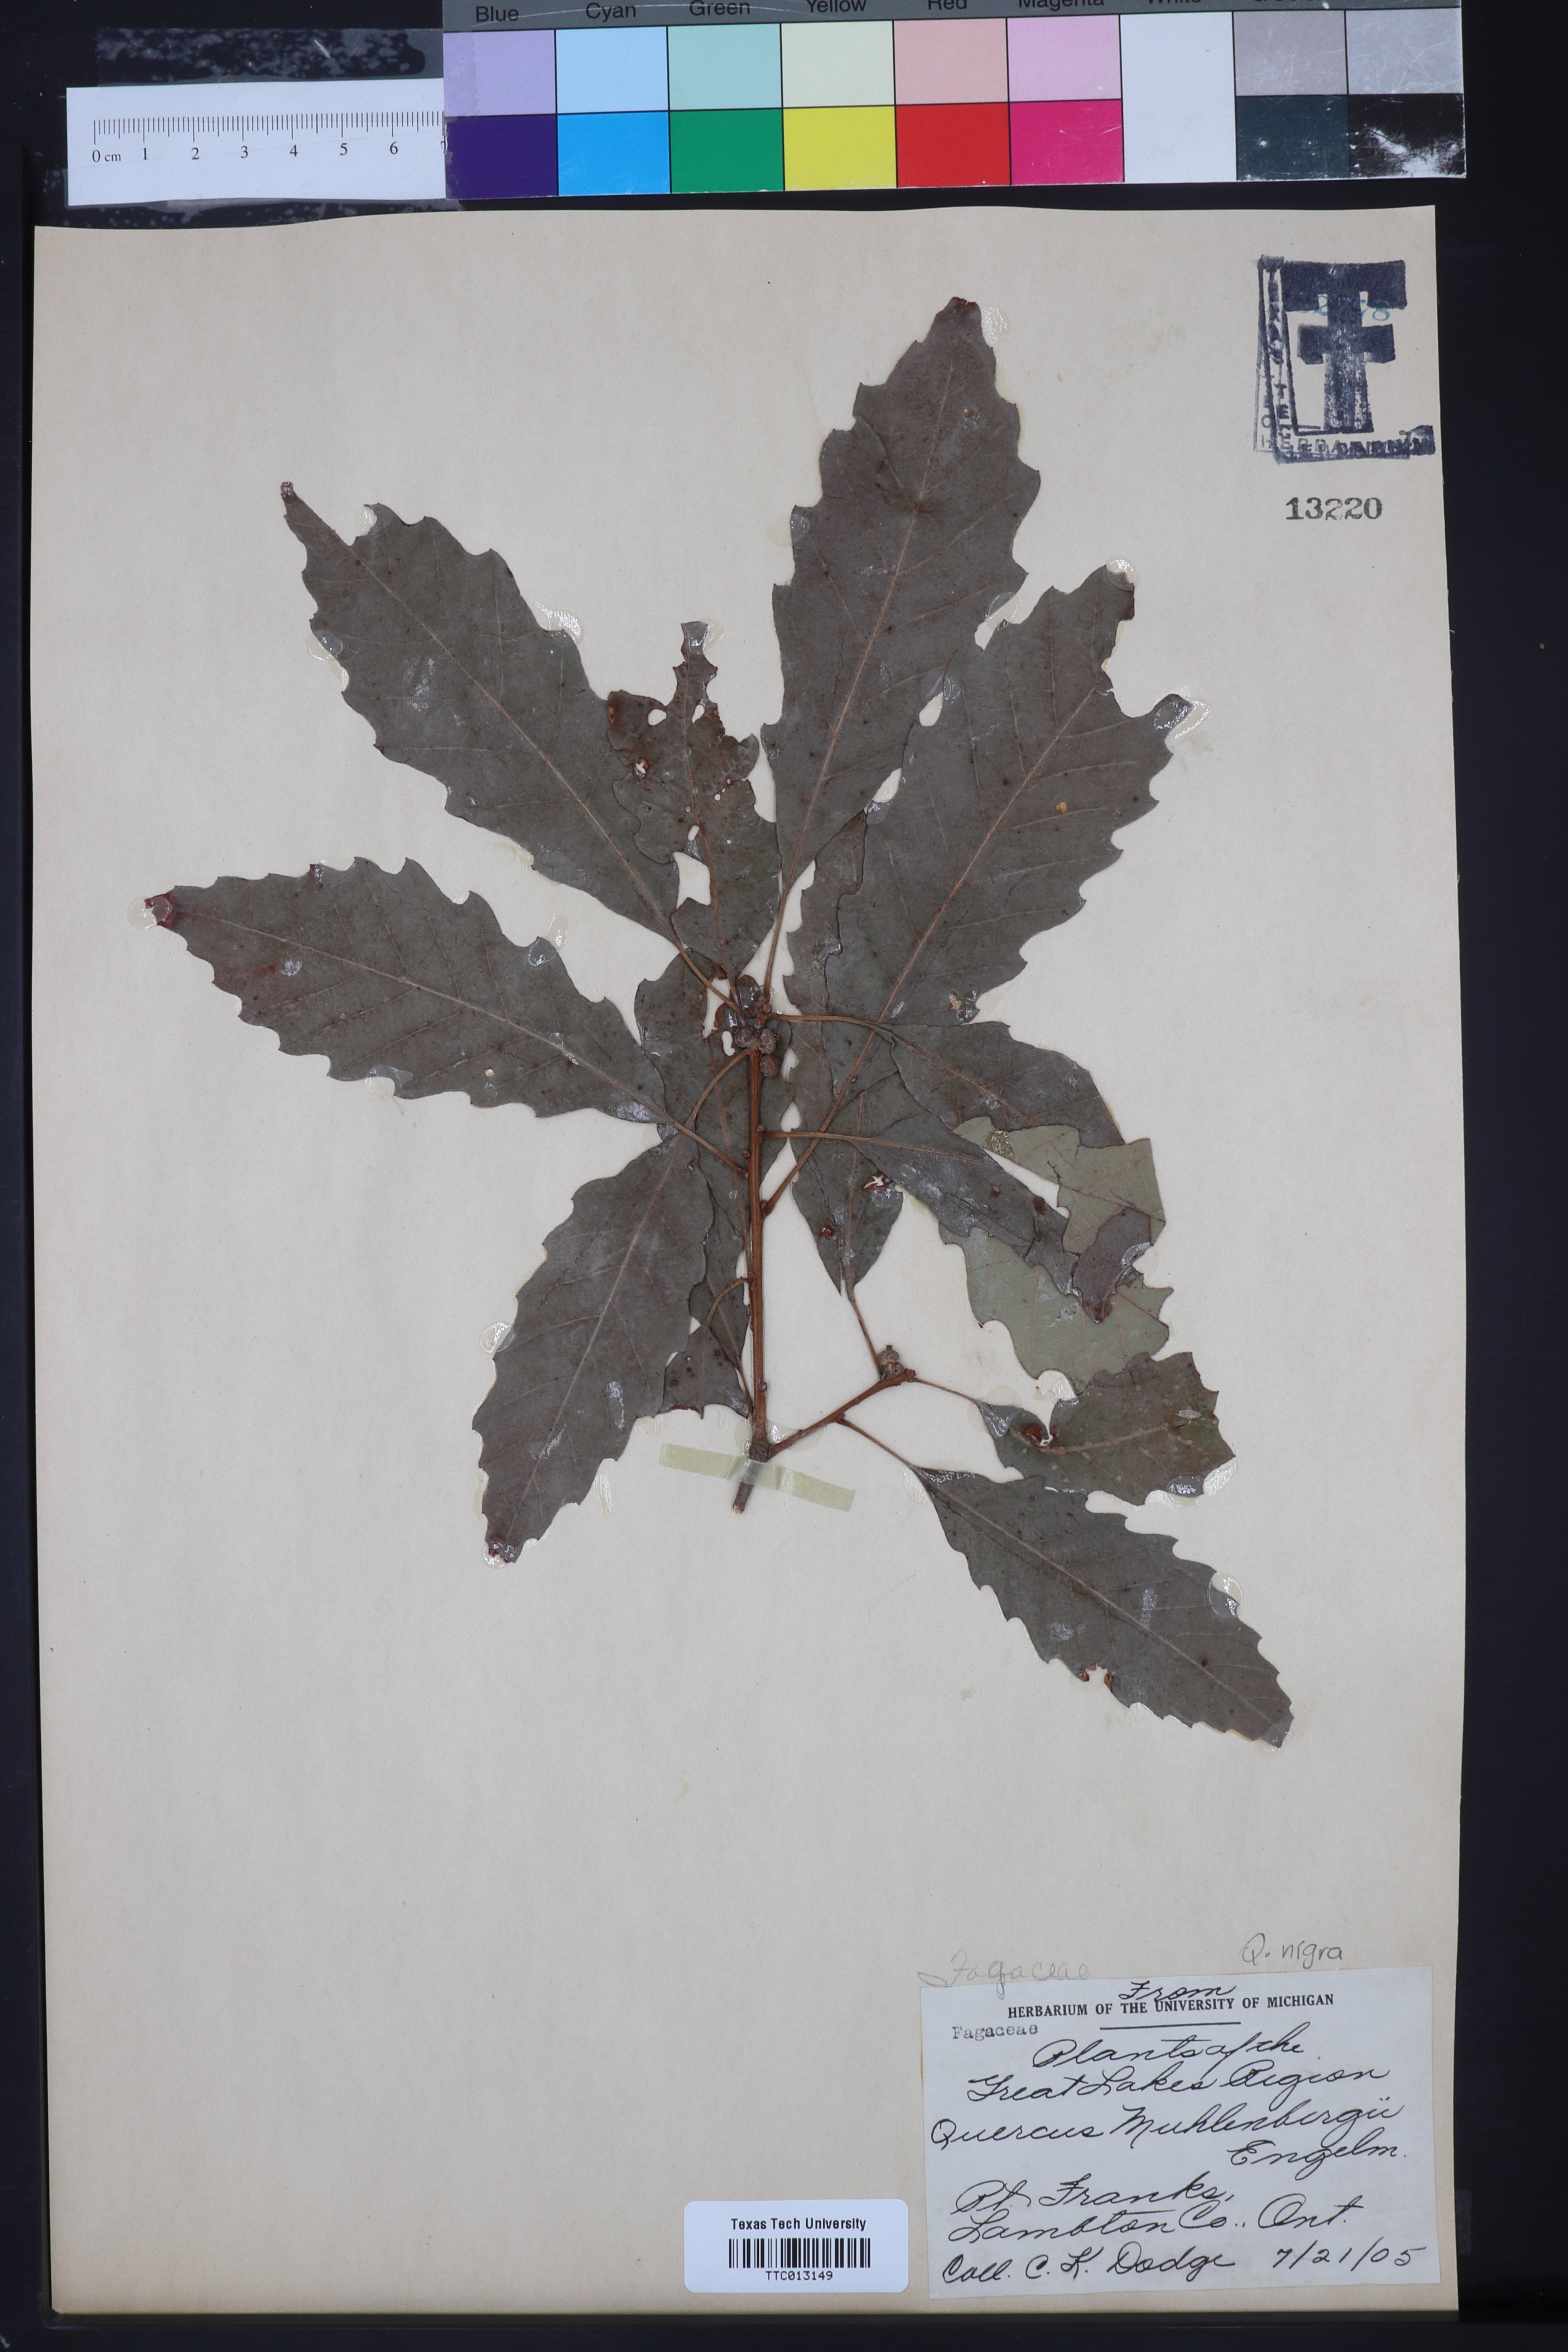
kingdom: Plantae
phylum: Tracheophyta
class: Magnoliopsida
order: Fagales
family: Fagaceae
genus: Quercus
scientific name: Quercus muehlenbergii
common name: Chinkapin oak
